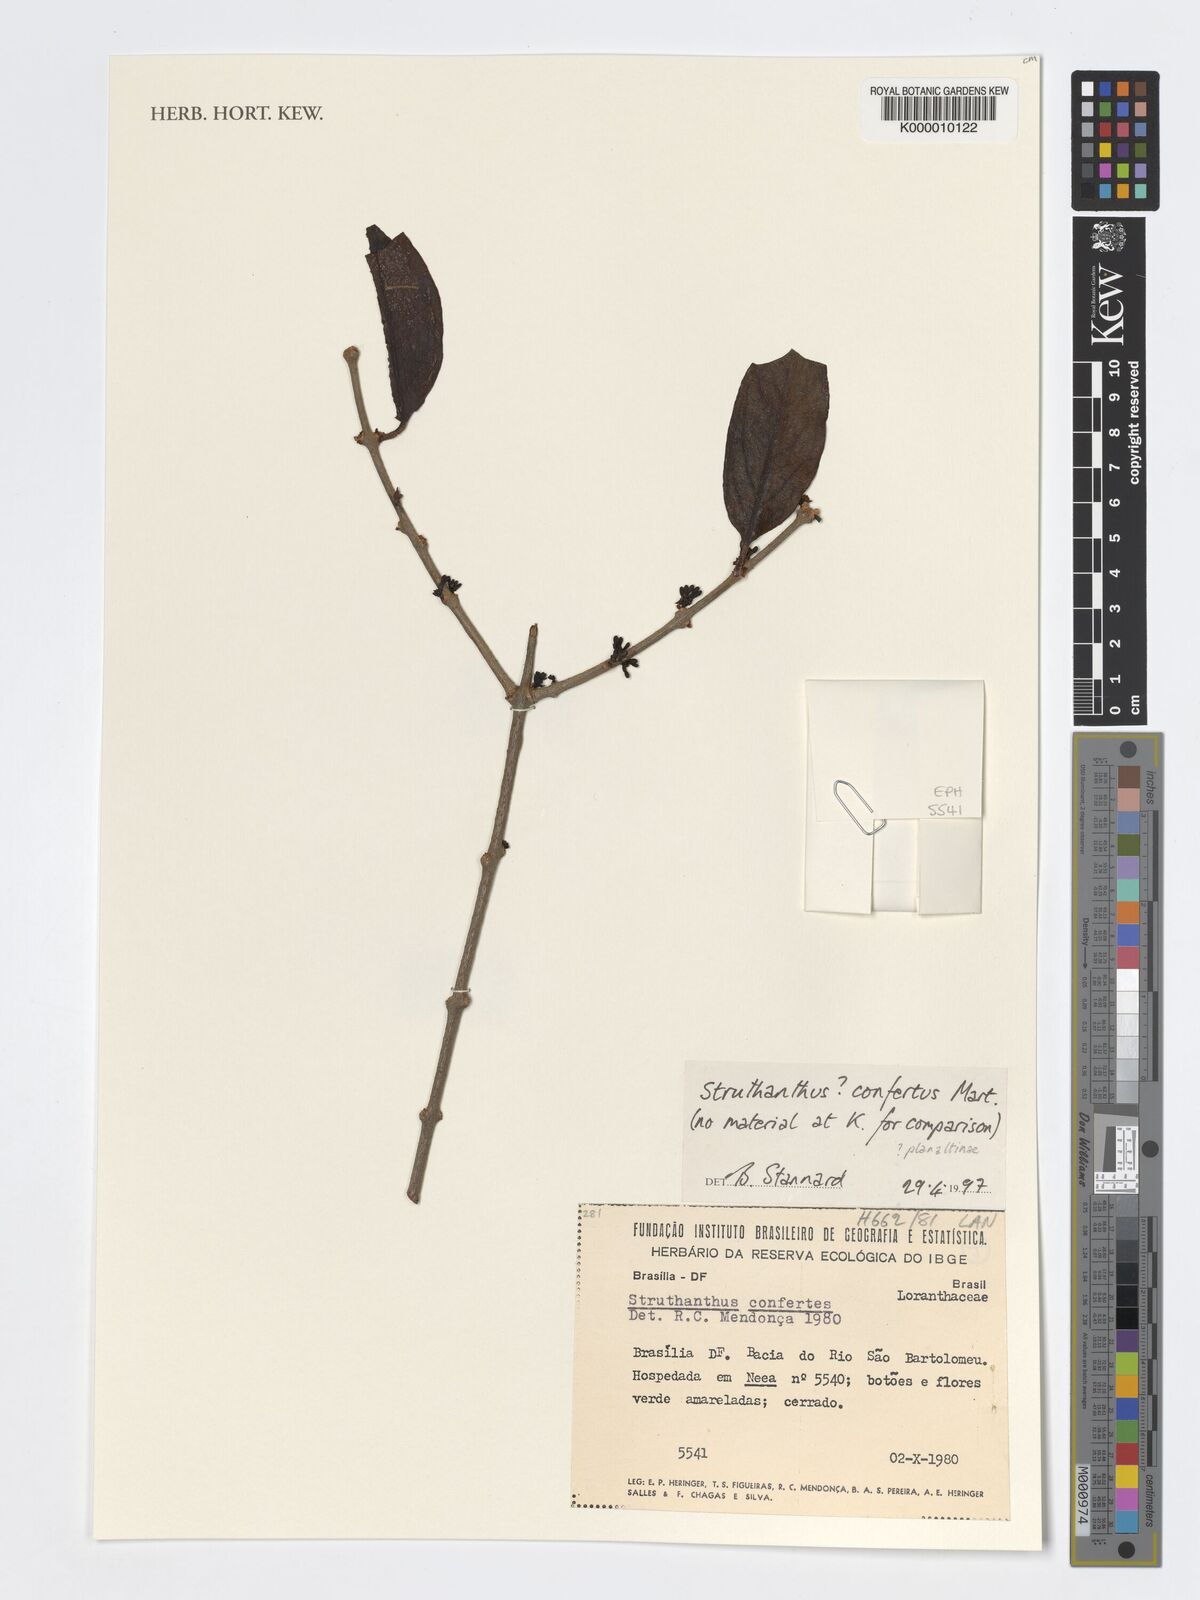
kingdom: Plantae
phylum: Tracheophyta
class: Magnoliopsida
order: Santalales
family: Loranthaceae
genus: Struthanthus
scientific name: Struthanthus confertus
